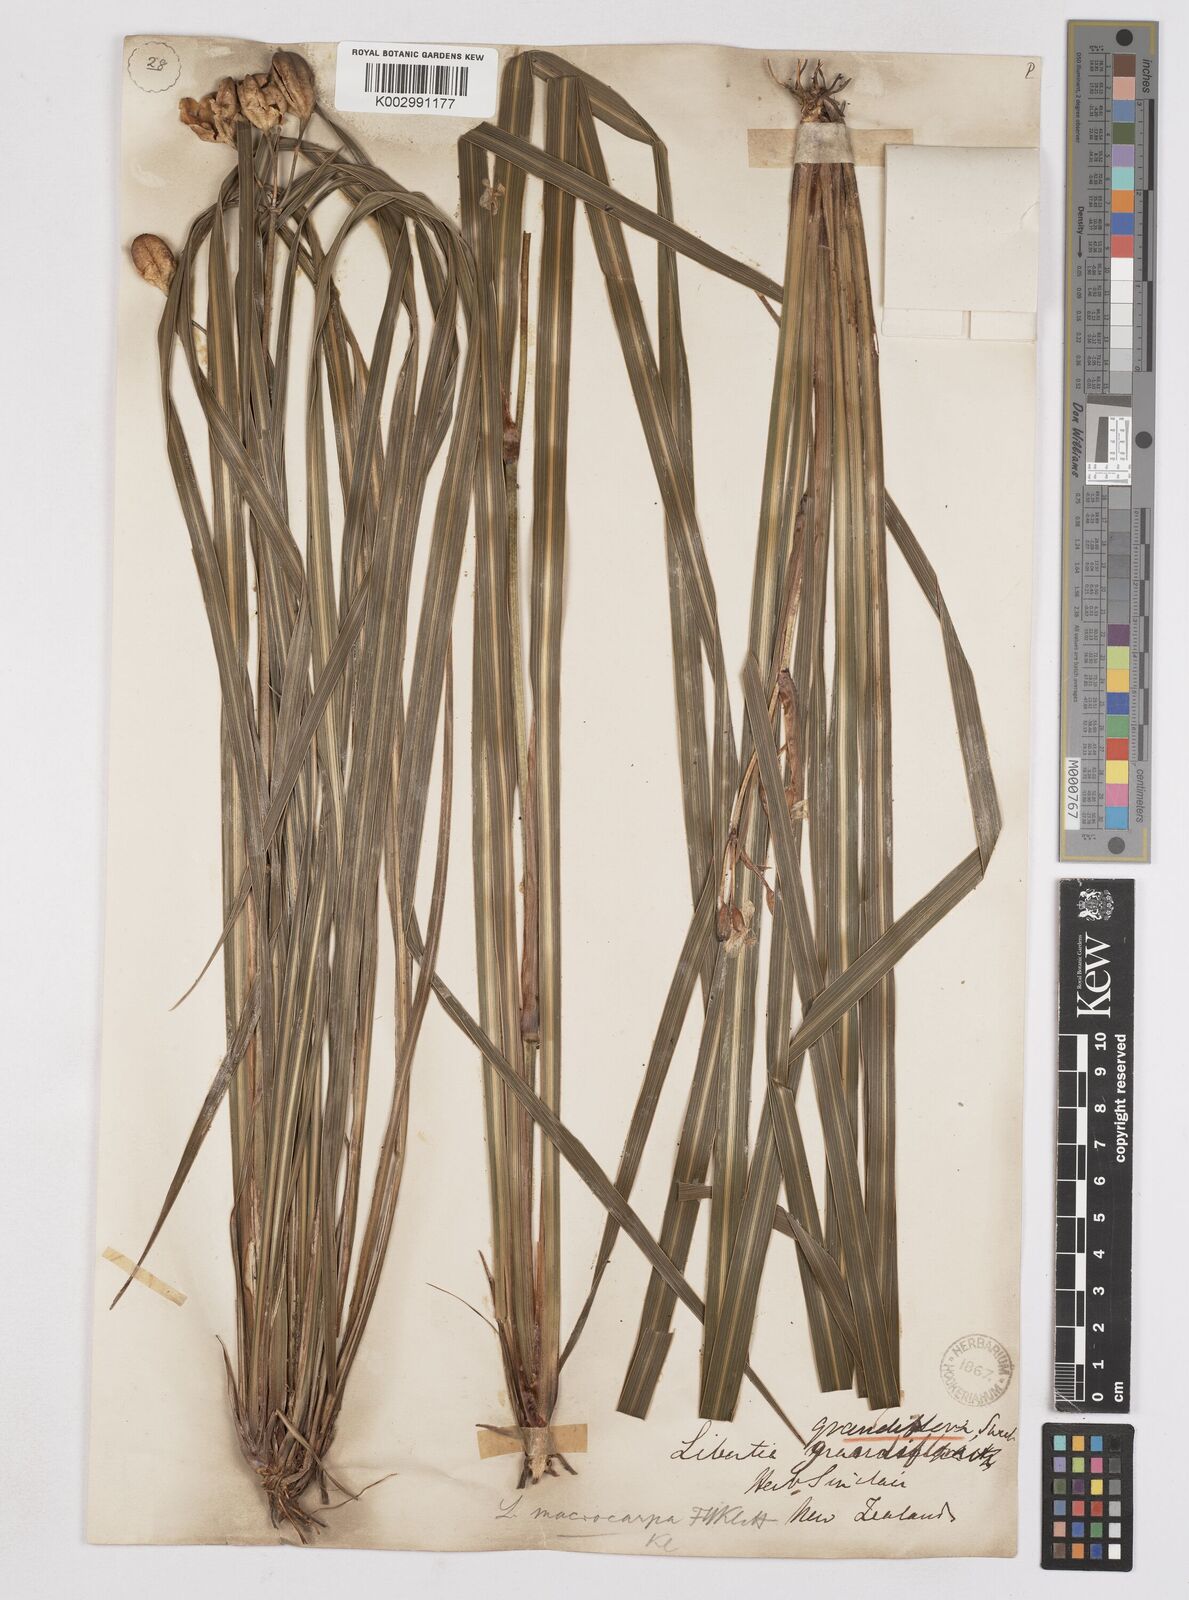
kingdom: Plantae
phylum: Tracheophyta
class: Liliopsida
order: Asparagales
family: Iridaceae
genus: Libertia
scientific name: Libertia ixioides
